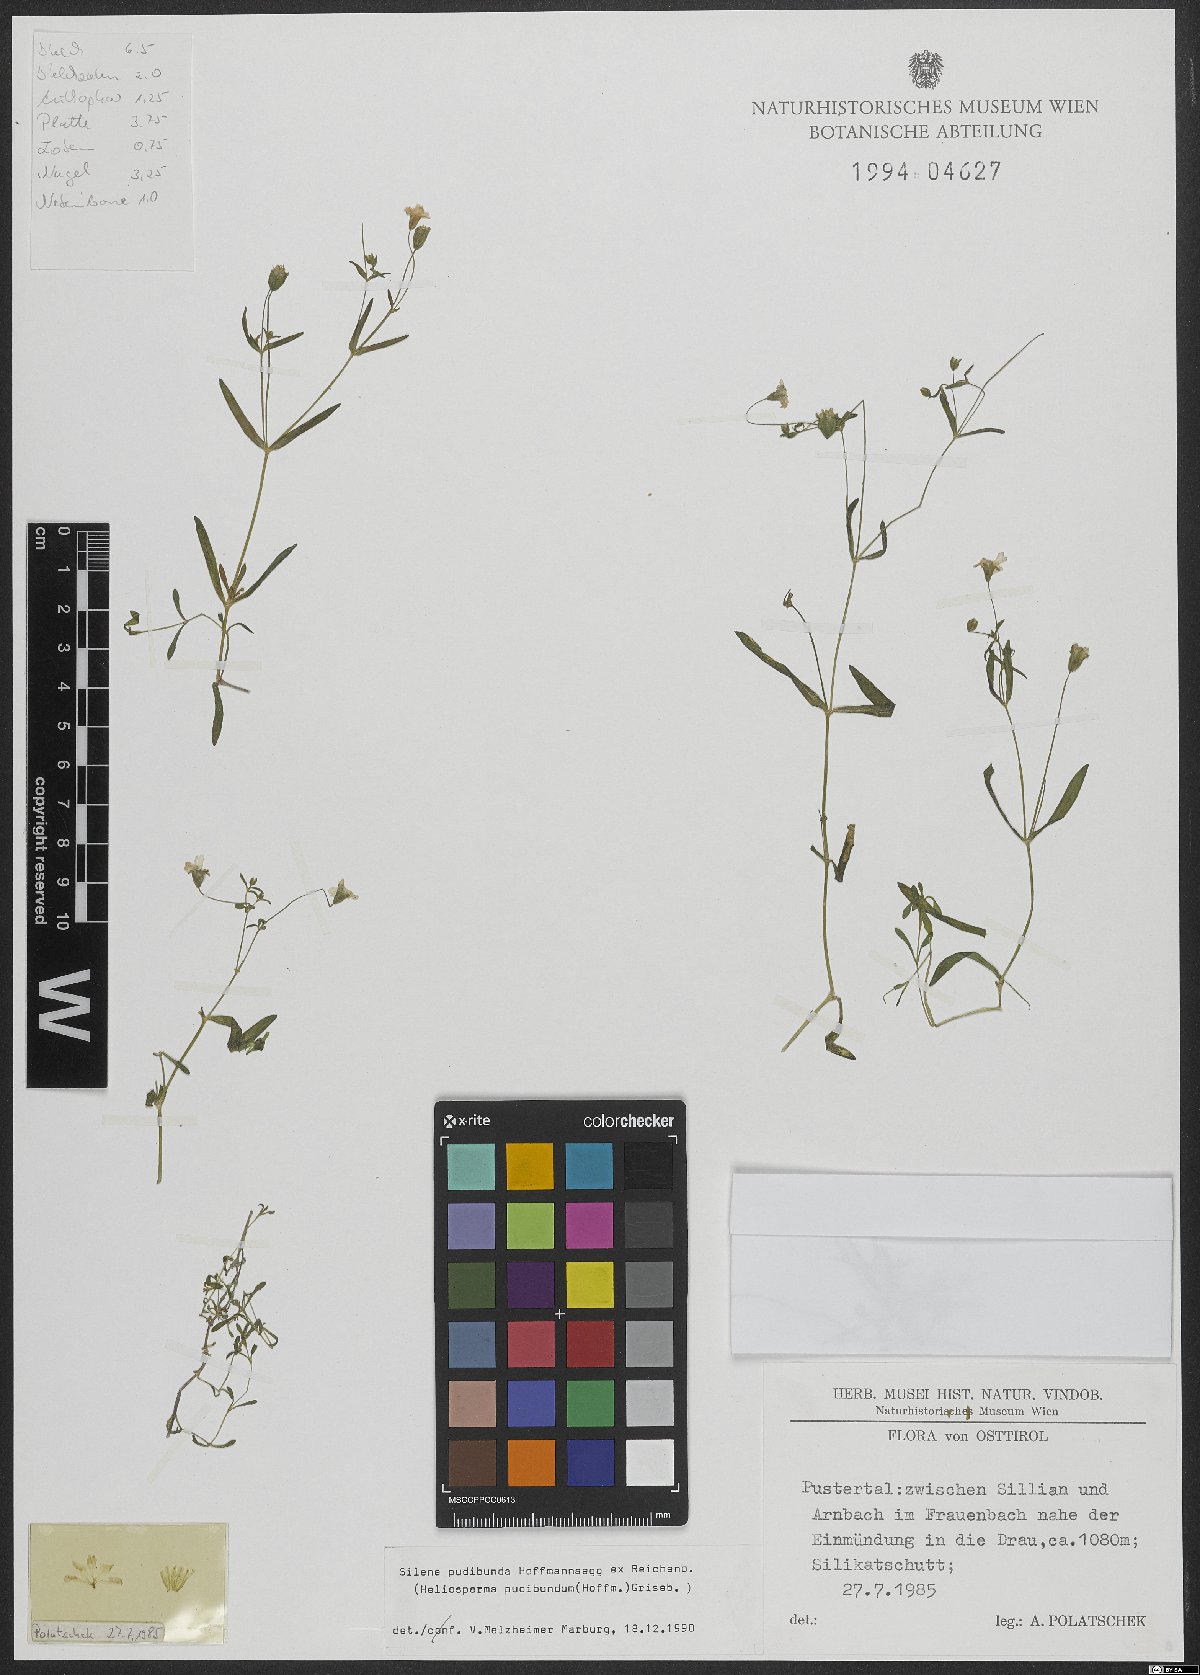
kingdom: Plantae
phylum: Tracheophyta
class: Magnoliopsida
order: Caryophyllales
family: Caryophyllaceae
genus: Heliosperma
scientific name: Heliosperma pudibundum
